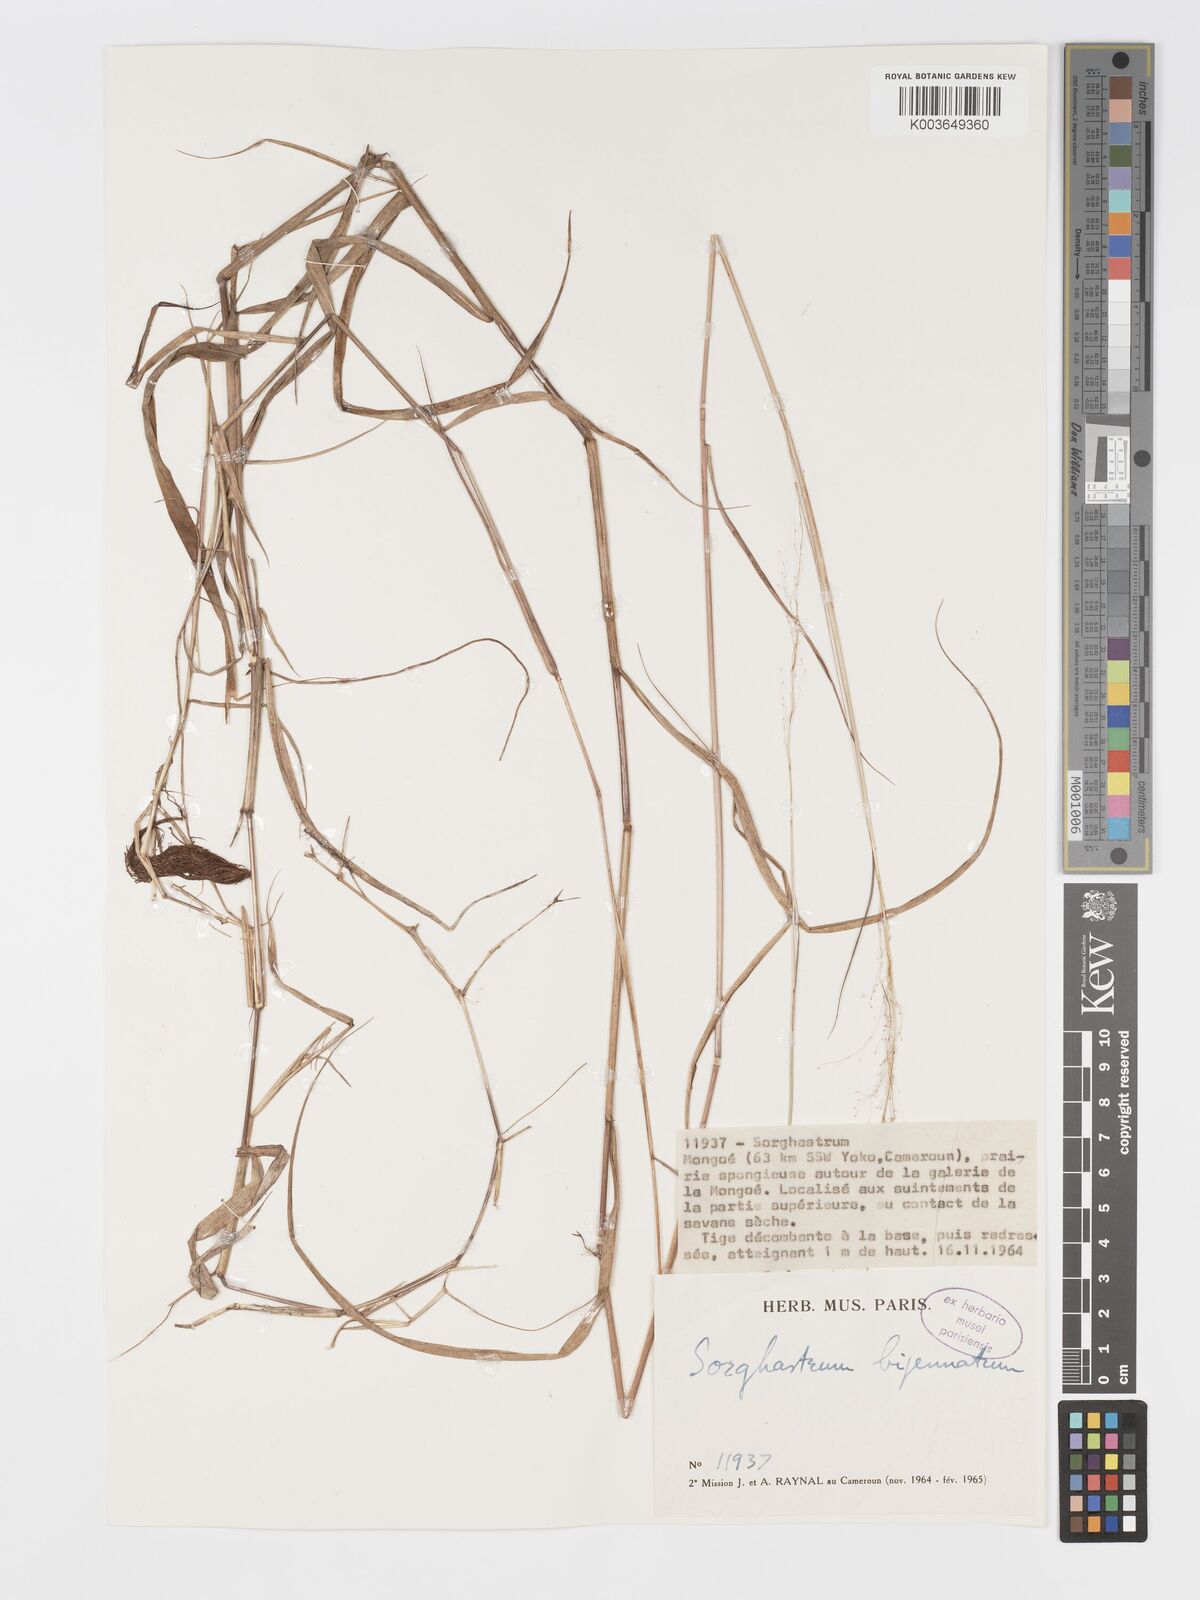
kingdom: Plantae
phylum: Tracheophyta
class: Liliopsida
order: Poales
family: Poaceae
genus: Sorghastrum
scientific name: Sorghastrum incompletum
